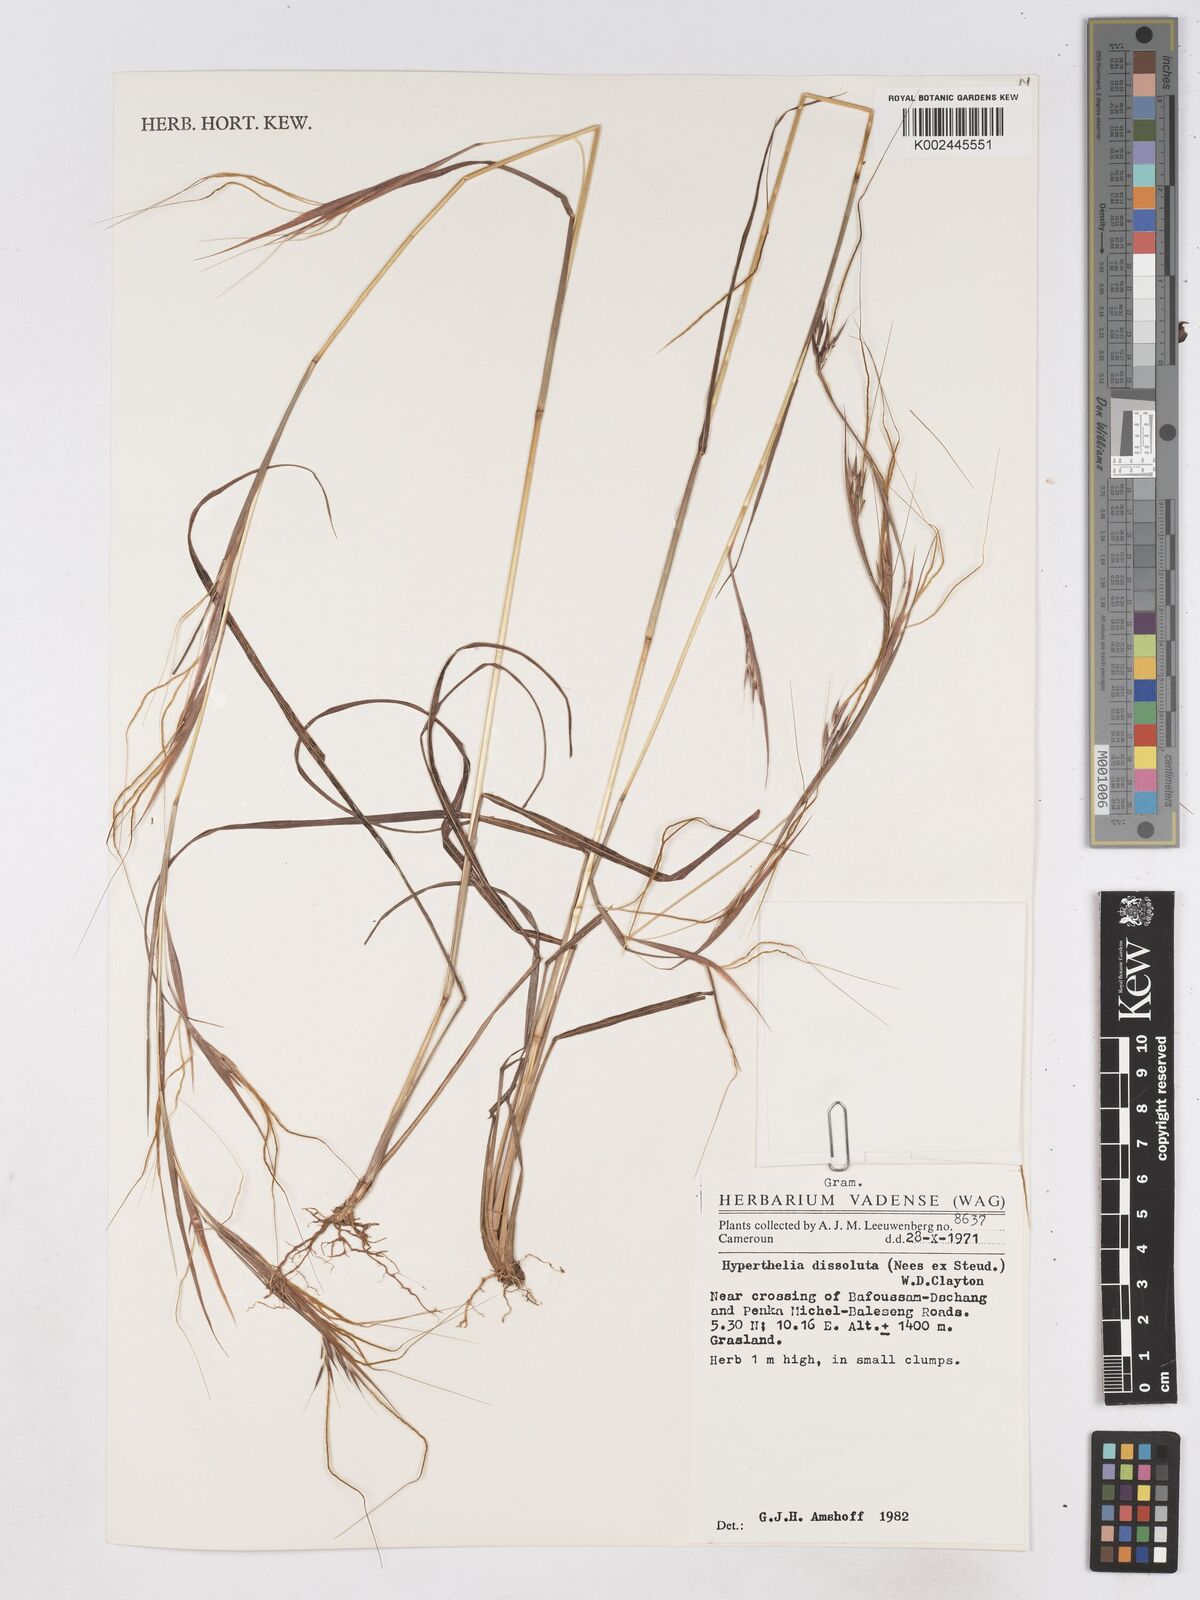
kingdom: Plantae
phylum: Tracheophyta
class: Liliopsida
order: Poales
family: Poaceae
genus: Hyperthelia
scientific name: Hyperthelia dissoluta
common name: Yellow thatching grass
